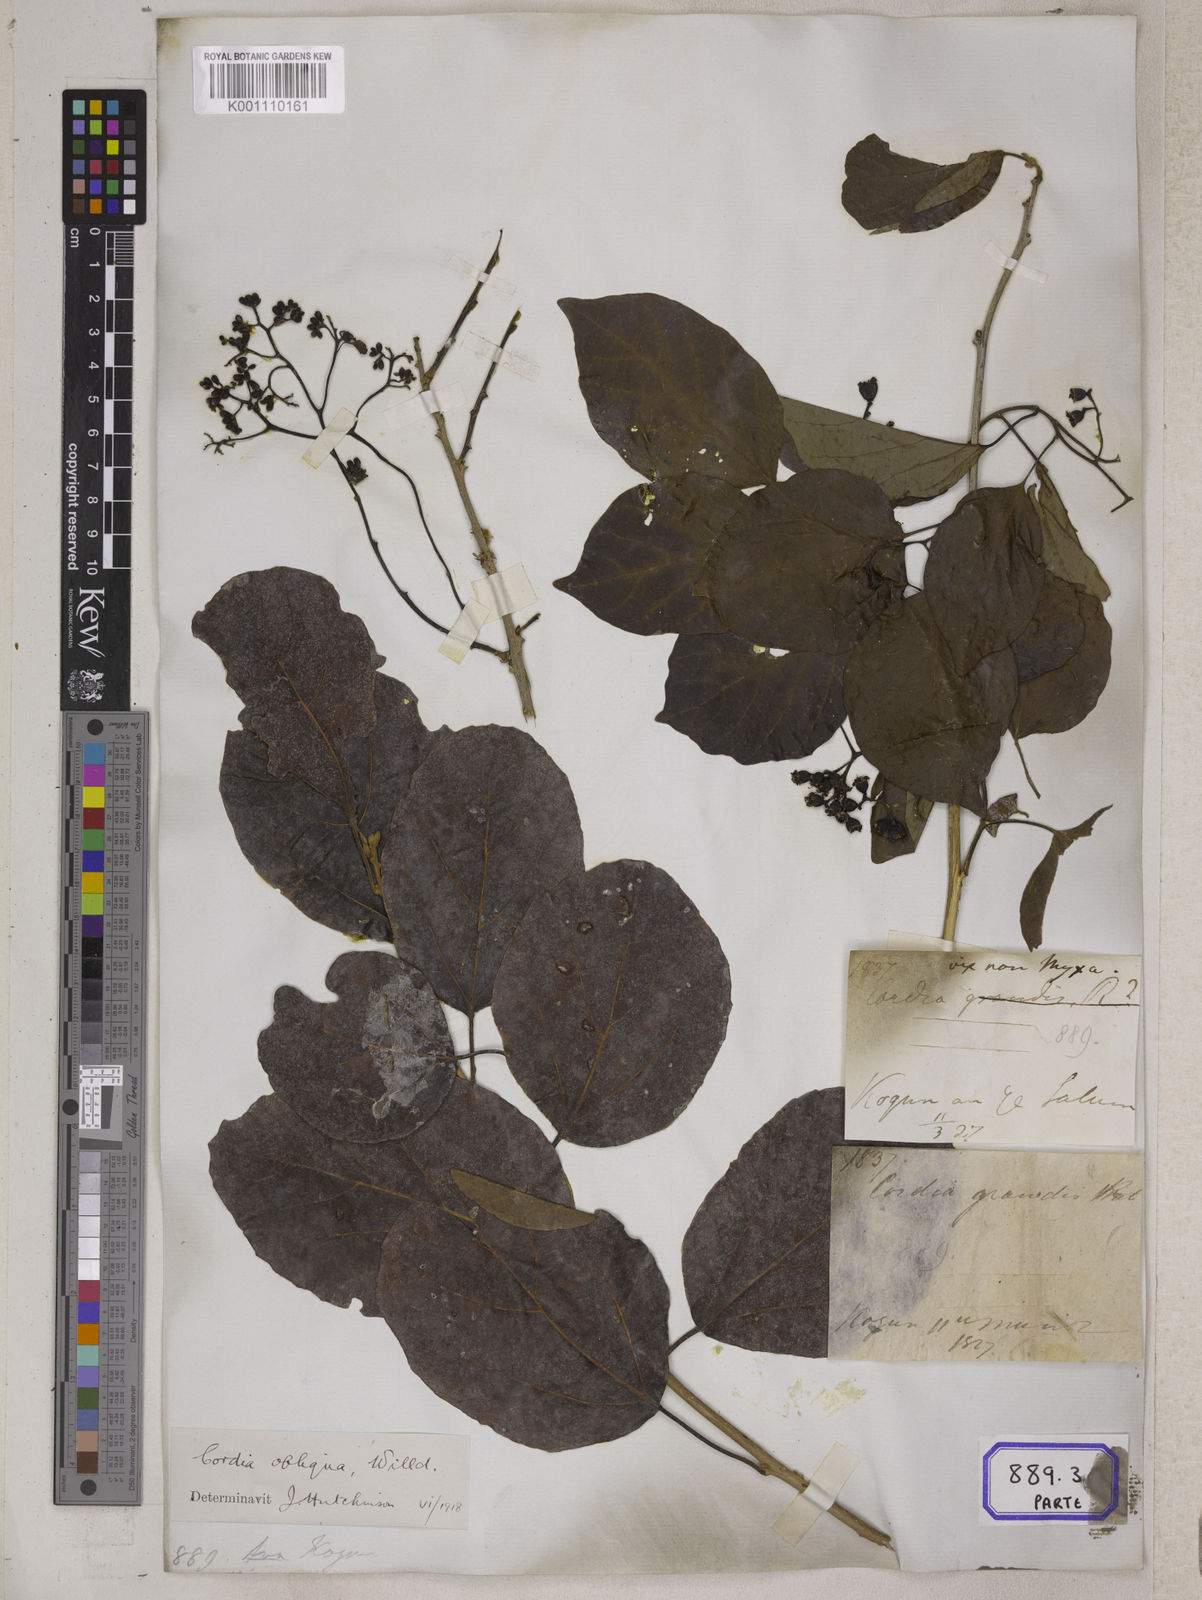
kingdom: Plantae
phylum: Tracheophyta
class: Magnoliopsida
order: Boraginales
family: Cordiaceae
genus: Cordia
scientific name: Cordia myxa
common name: Assyrian plum
